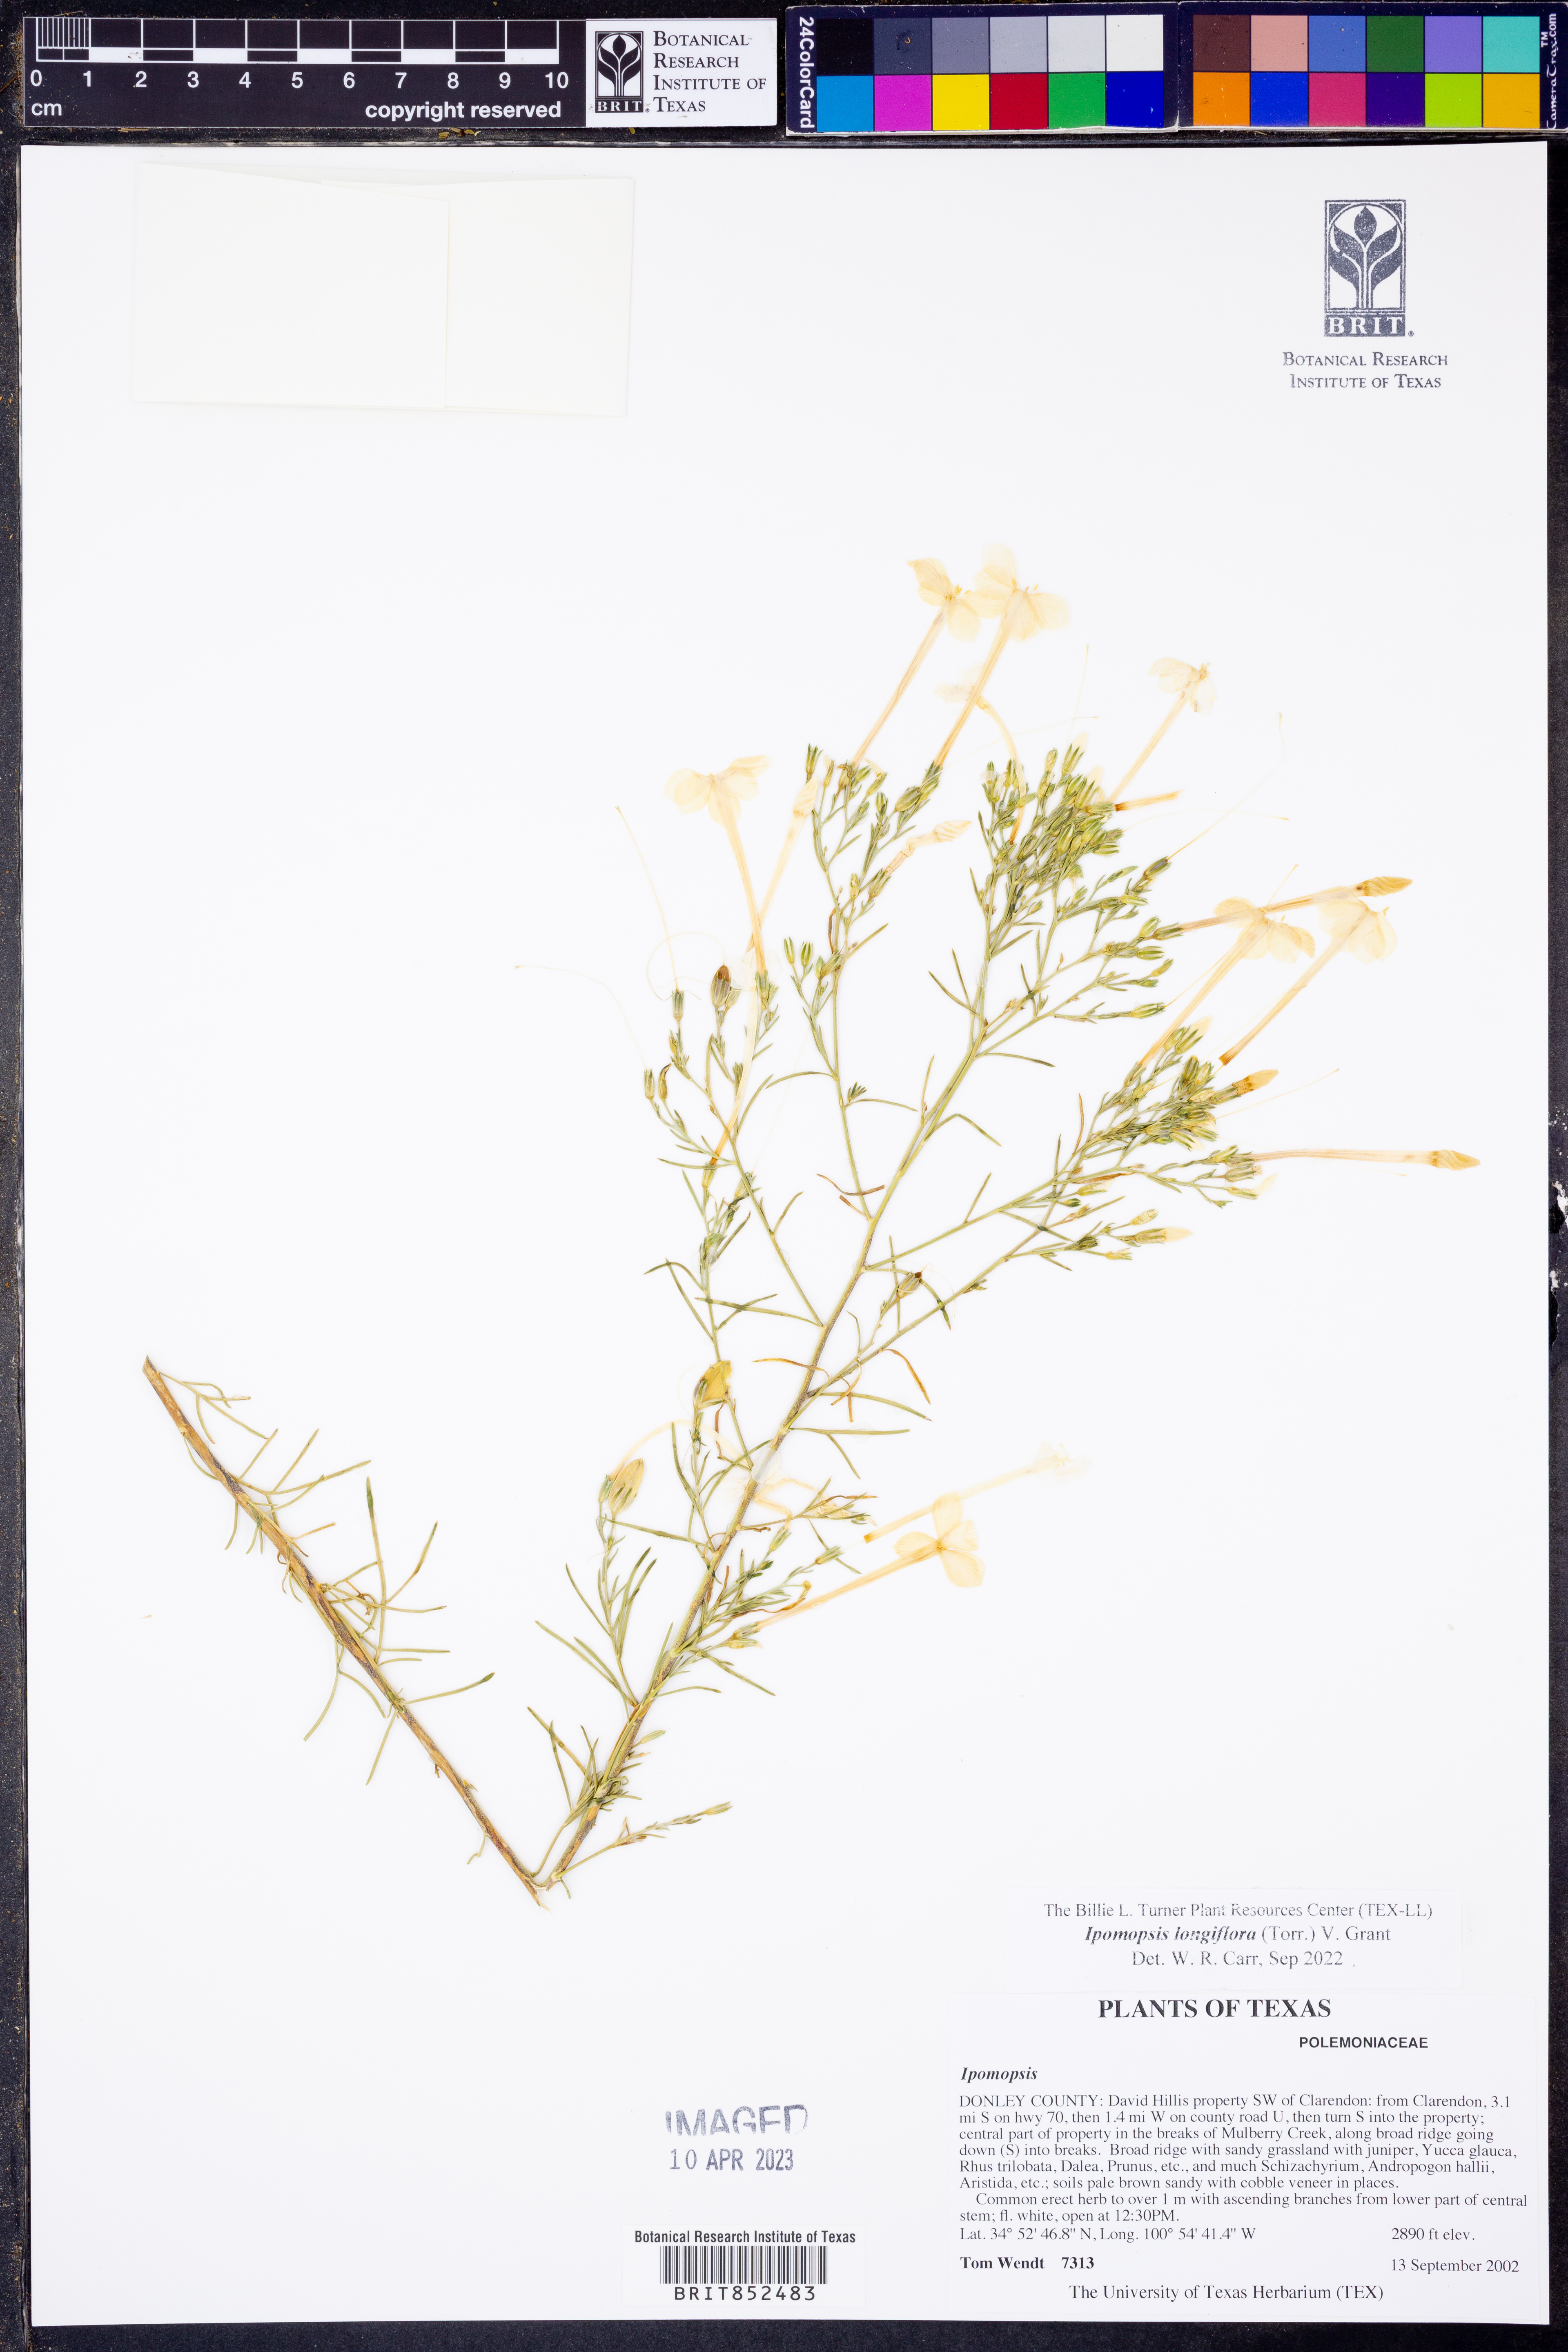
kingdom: Plantae
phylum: Tracheophyta
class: Magnoliopsida
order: Ericales
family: Polemoniaceae
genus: Ipomopsis
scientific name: Ipomopsis longiflora
